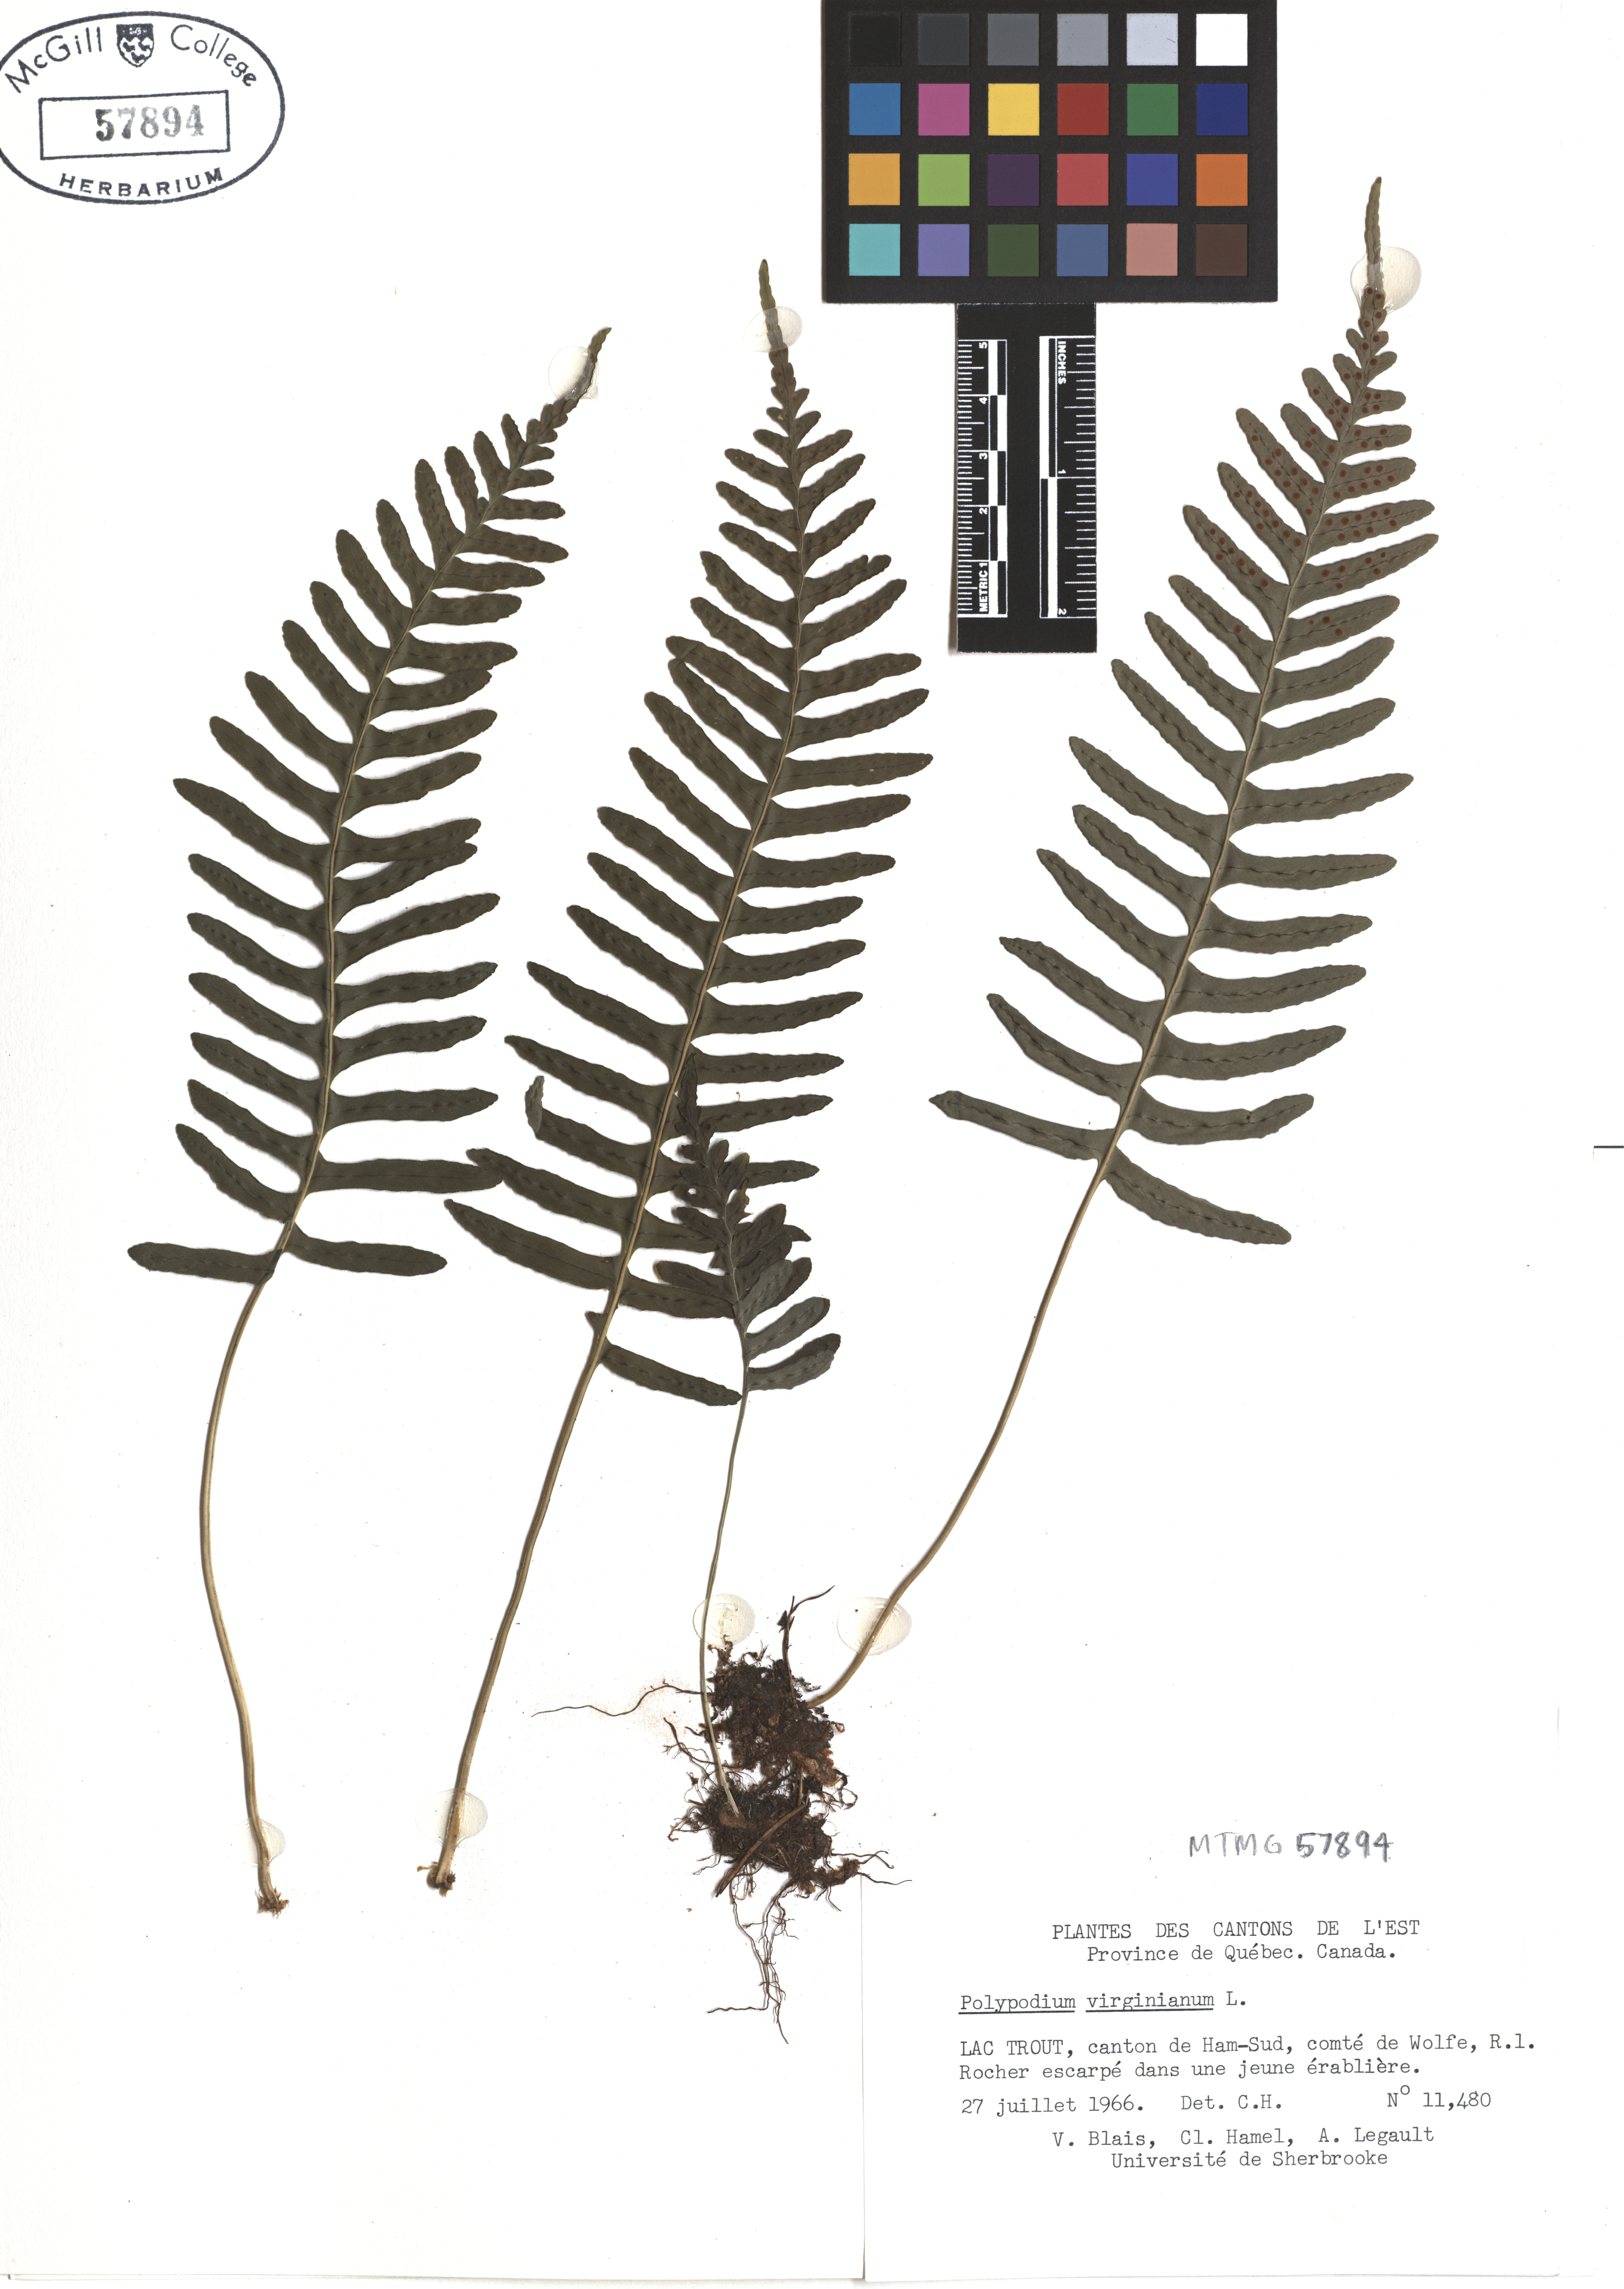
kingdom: Plantae
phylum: Tracheophyta
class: Polypodiopsida
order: Polypodiales
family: Polypodiaceae
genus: Polypodium
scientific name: Polypodium virginianum
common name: American wall fern
